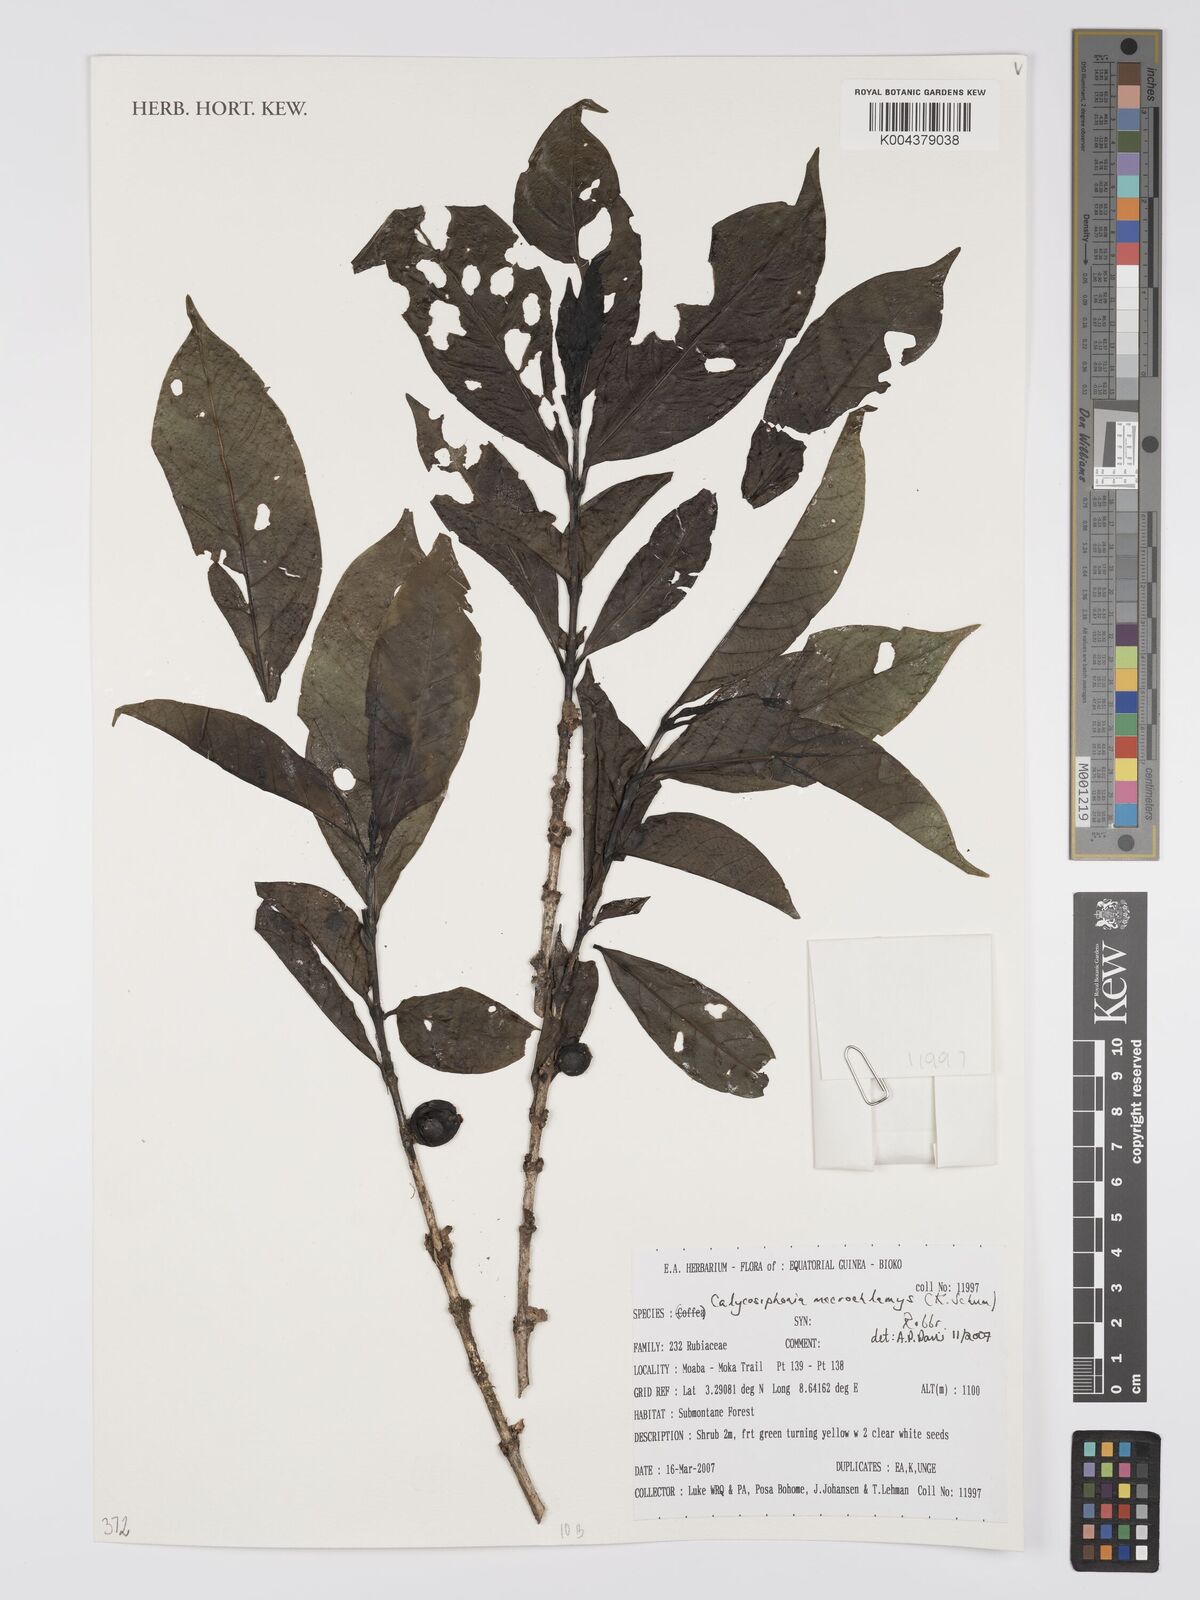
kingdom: Plantae
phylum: Tracheophyta
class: Magnoliopsida
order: Gentianales
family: Rubiaceae
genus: Calycosiphonia
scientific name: Calycosiphonia macrochlamys
